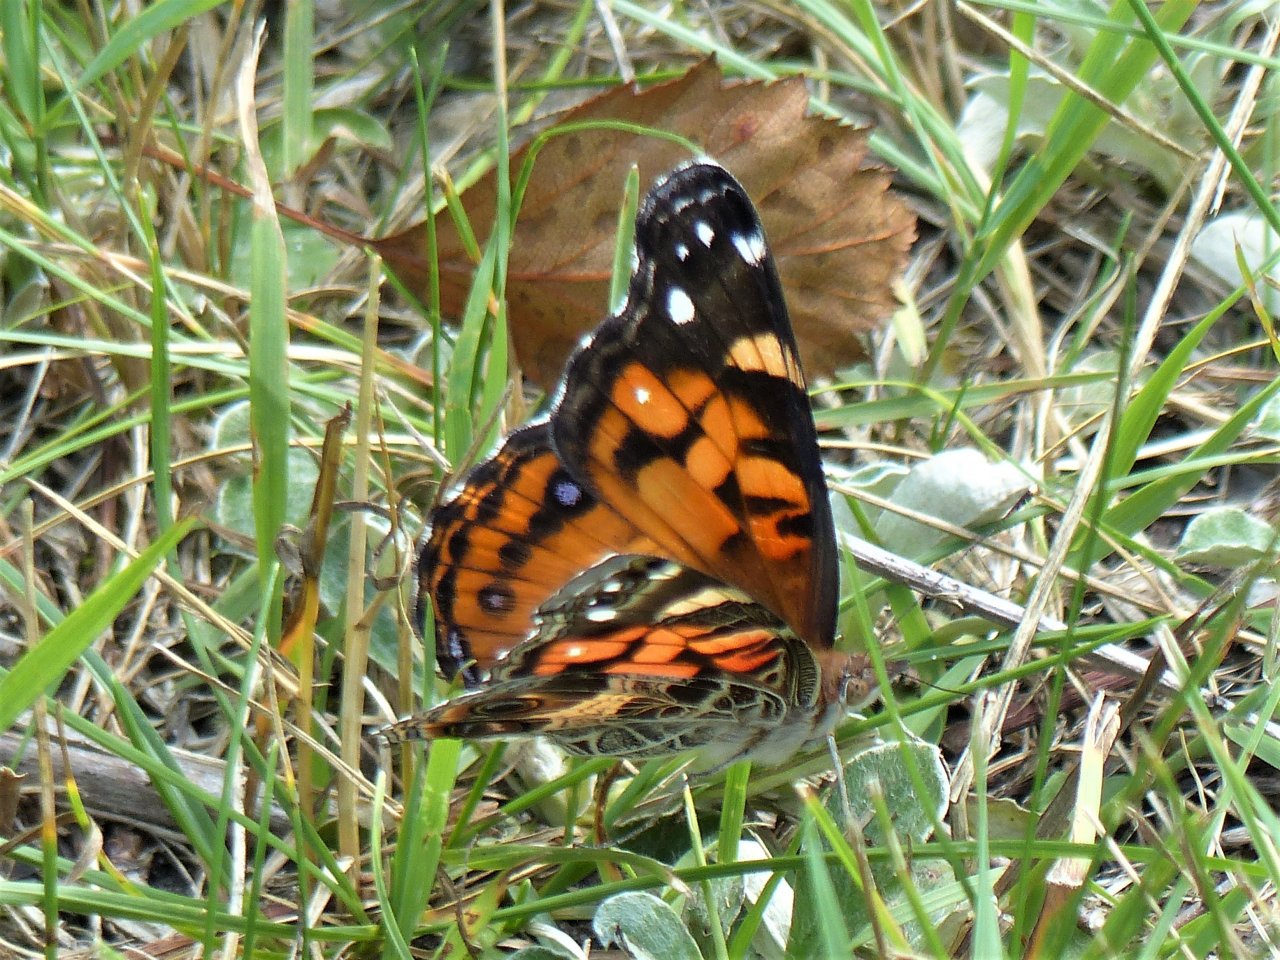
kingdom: Animalia
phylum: Arthropoda
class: Insecta
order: Lepidoptera
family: Nymphalidae
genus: Vanessa
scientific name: Vanessa virginiensis
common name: American Lady
